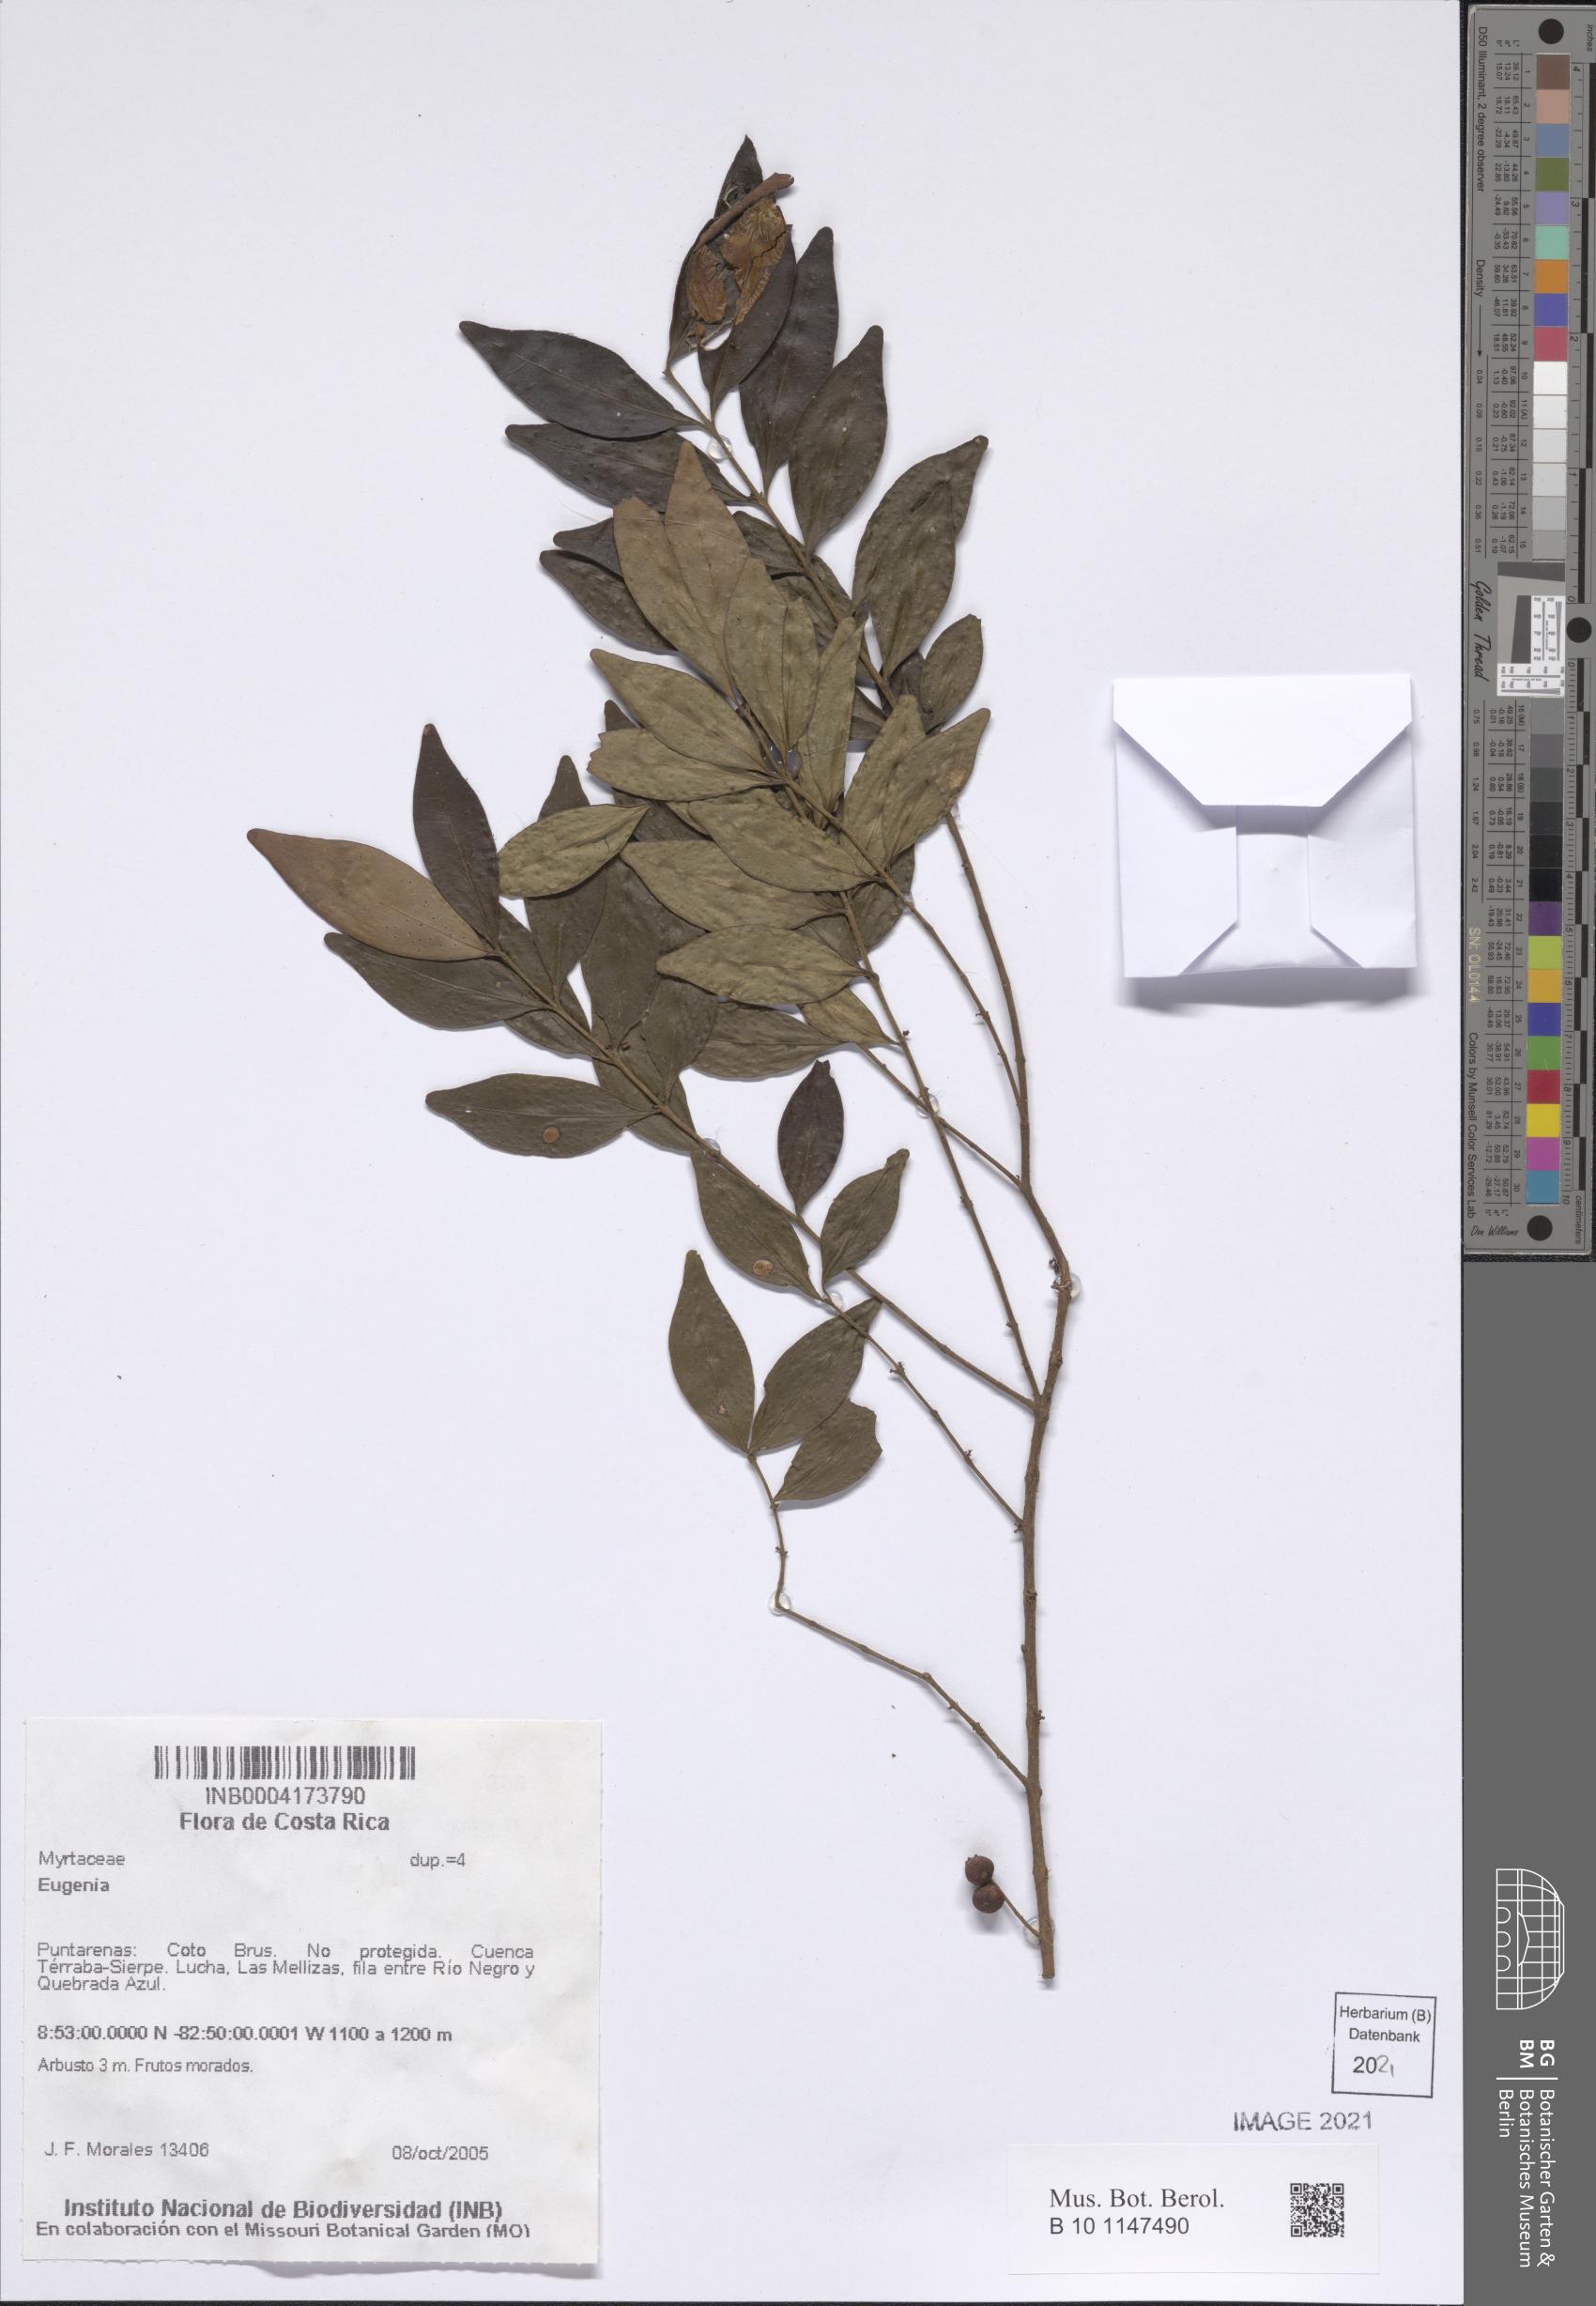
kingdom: Plantae
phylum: Tracheophyta
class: Magnoliopsida
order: Myrtales
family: Myrtaceae
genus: Eugenia
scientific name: Eugenia
